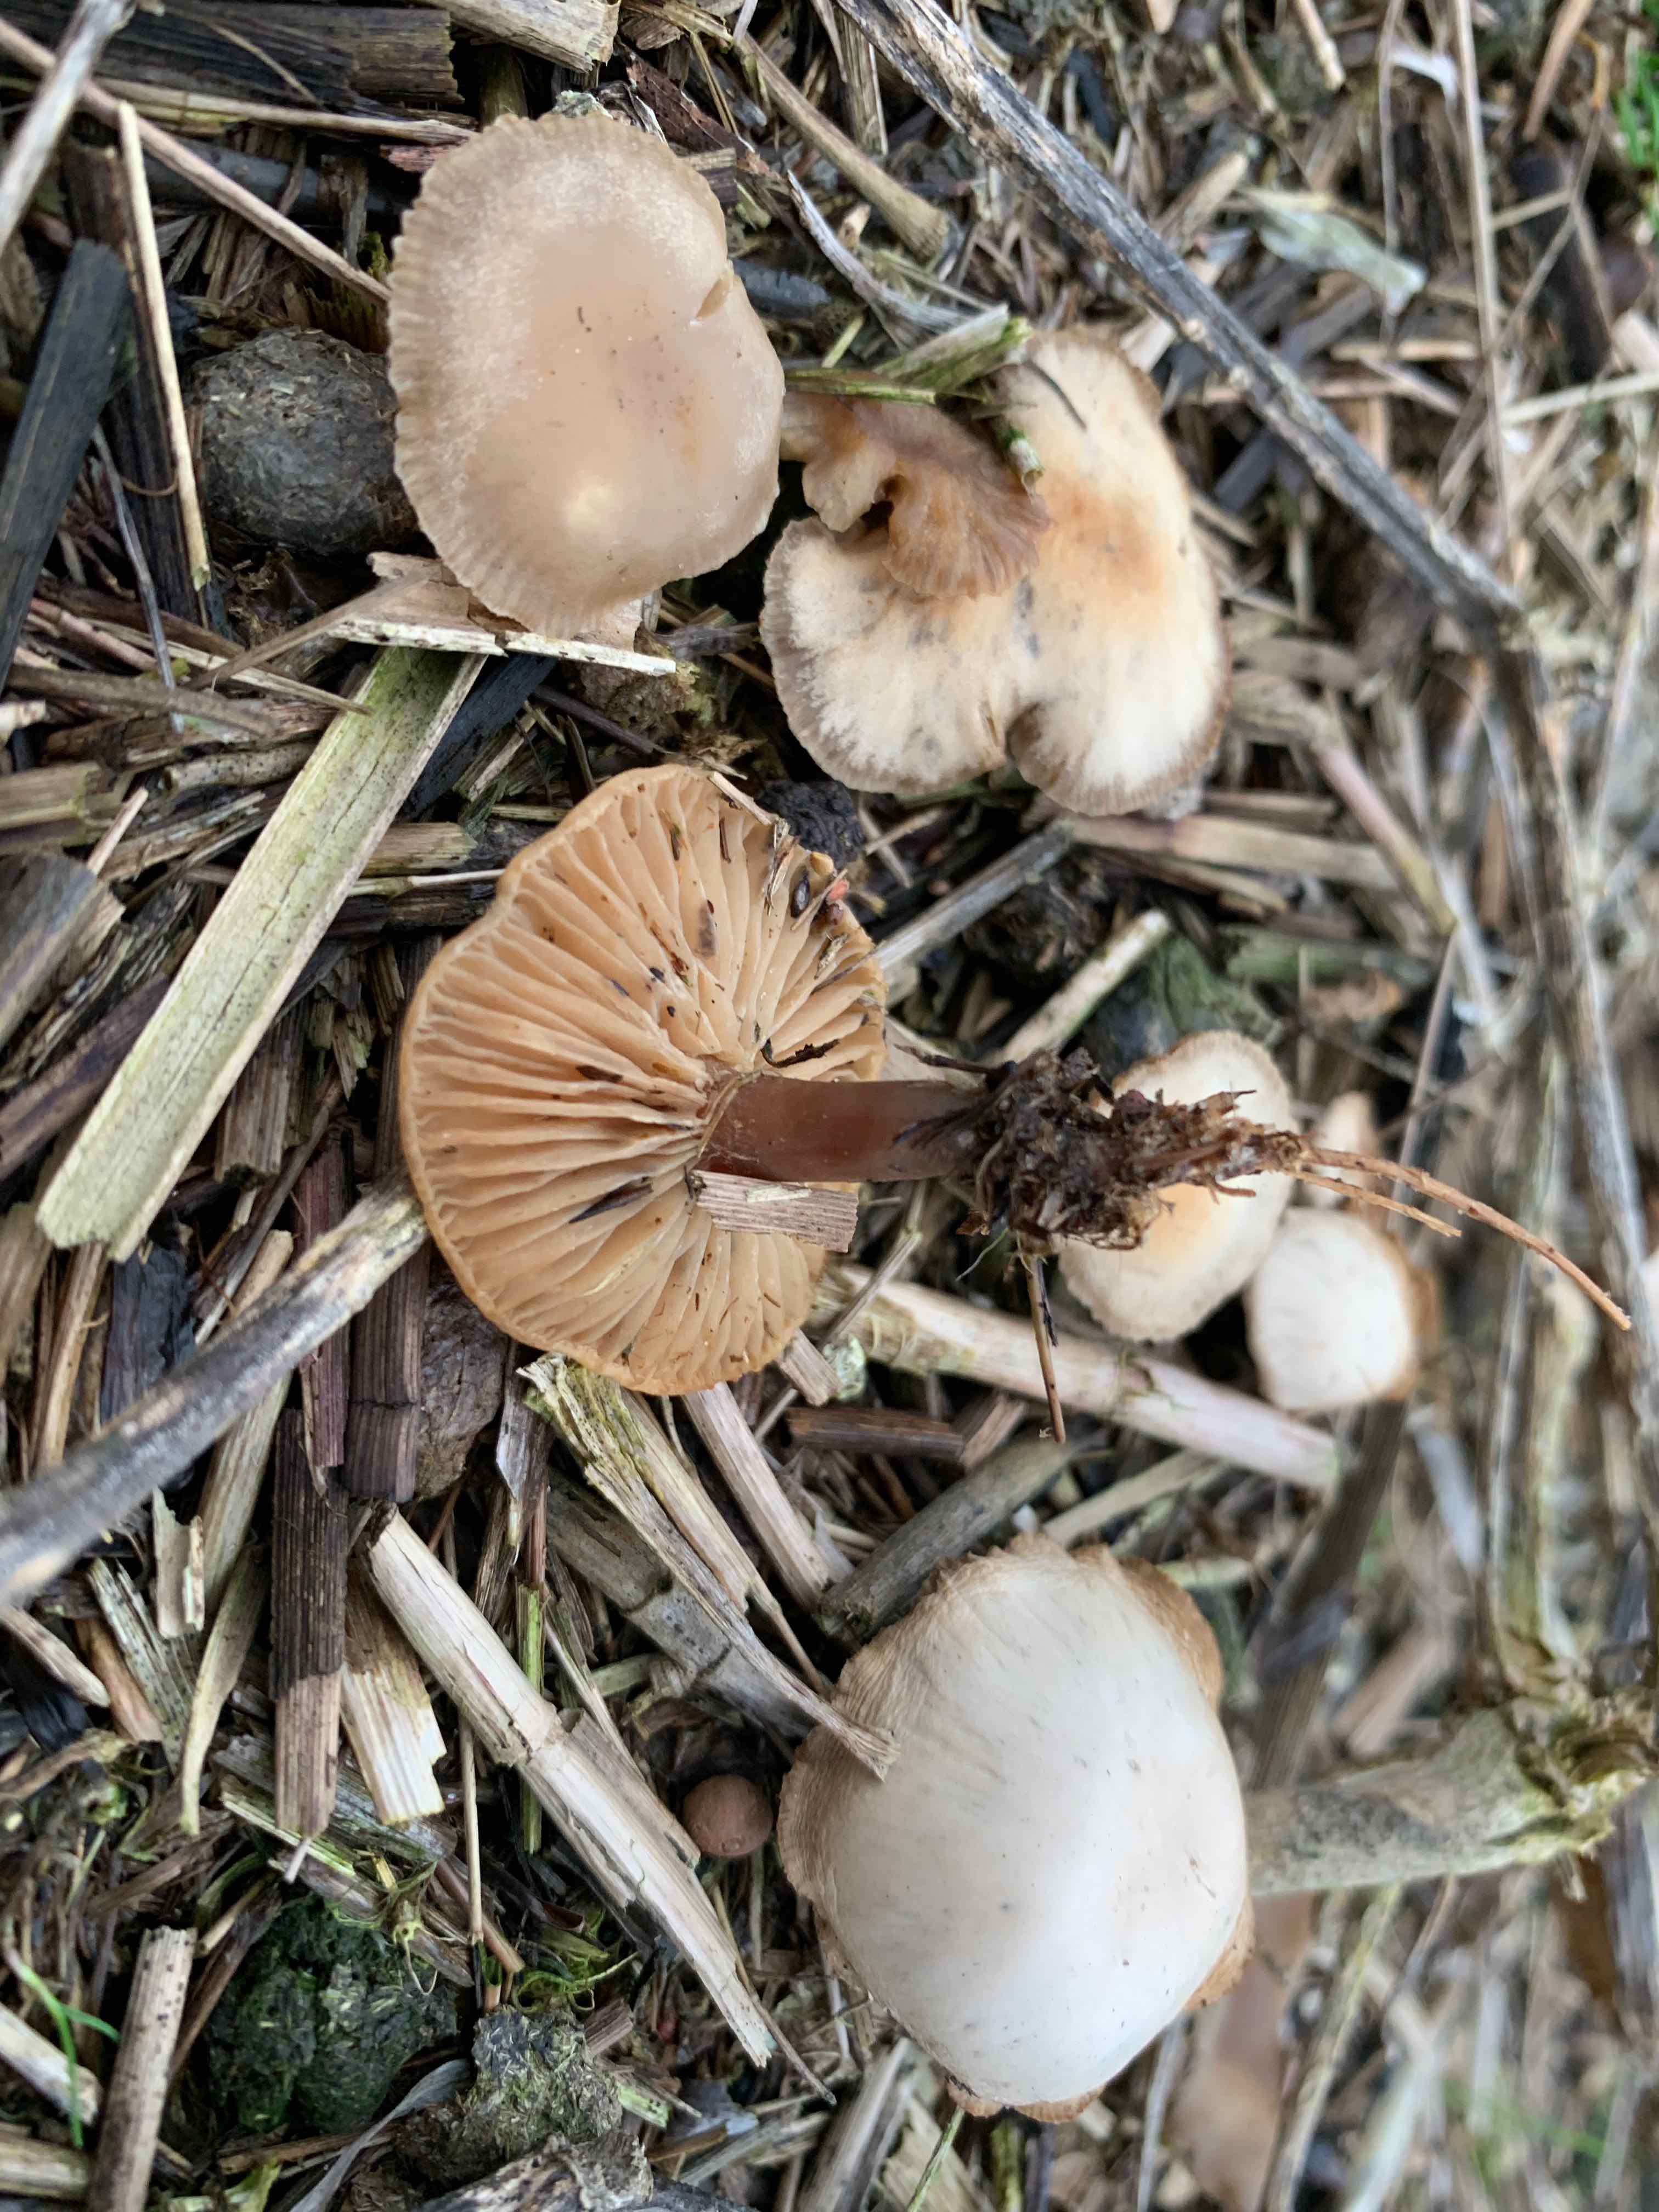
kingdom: Fungi
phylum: Basidiomycota
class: Agaricomycetes
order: Agaricales
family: Tricholomataceae
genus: Clitocybe
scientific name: Clitocybe amarescens
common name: gødnings-tragthat
